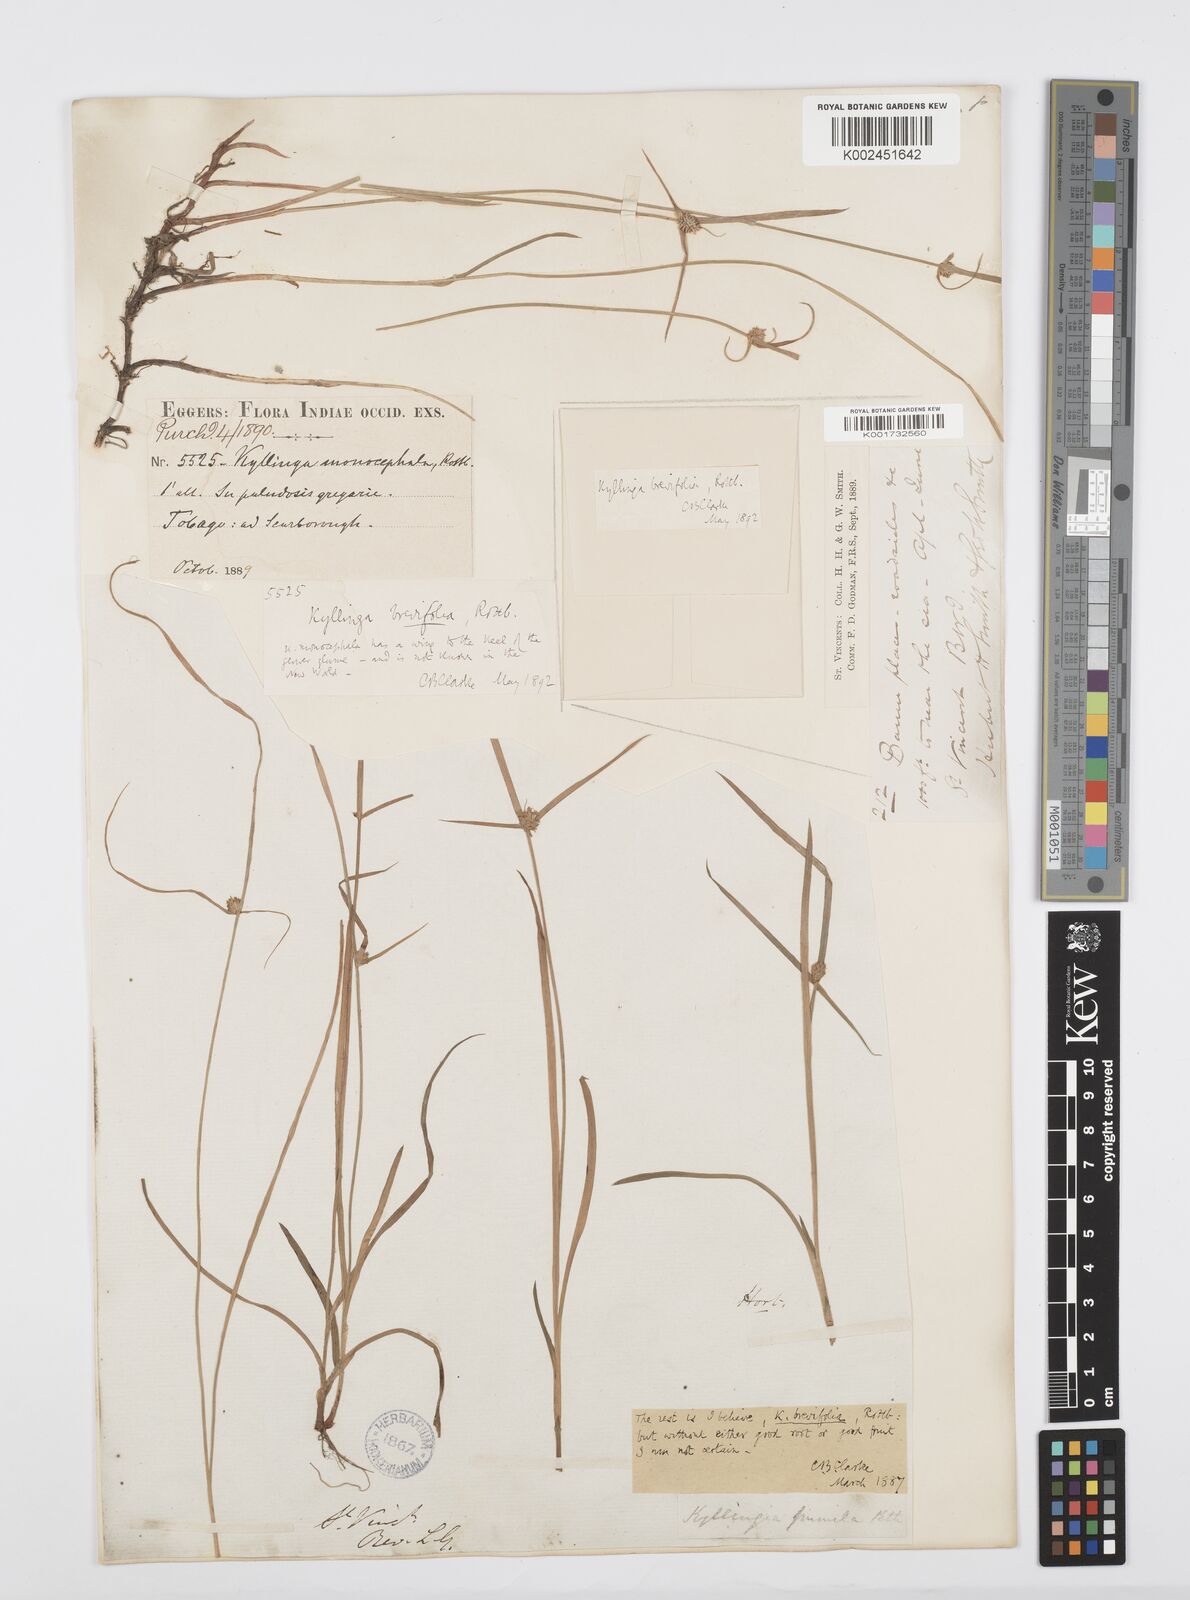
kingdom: Plantae
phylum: Tracheophyta
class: Liliopsida
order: Poales
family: Cyperaceae
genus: Cyperus
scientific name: Cyperus brevifolius
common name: Globe kyllinga
